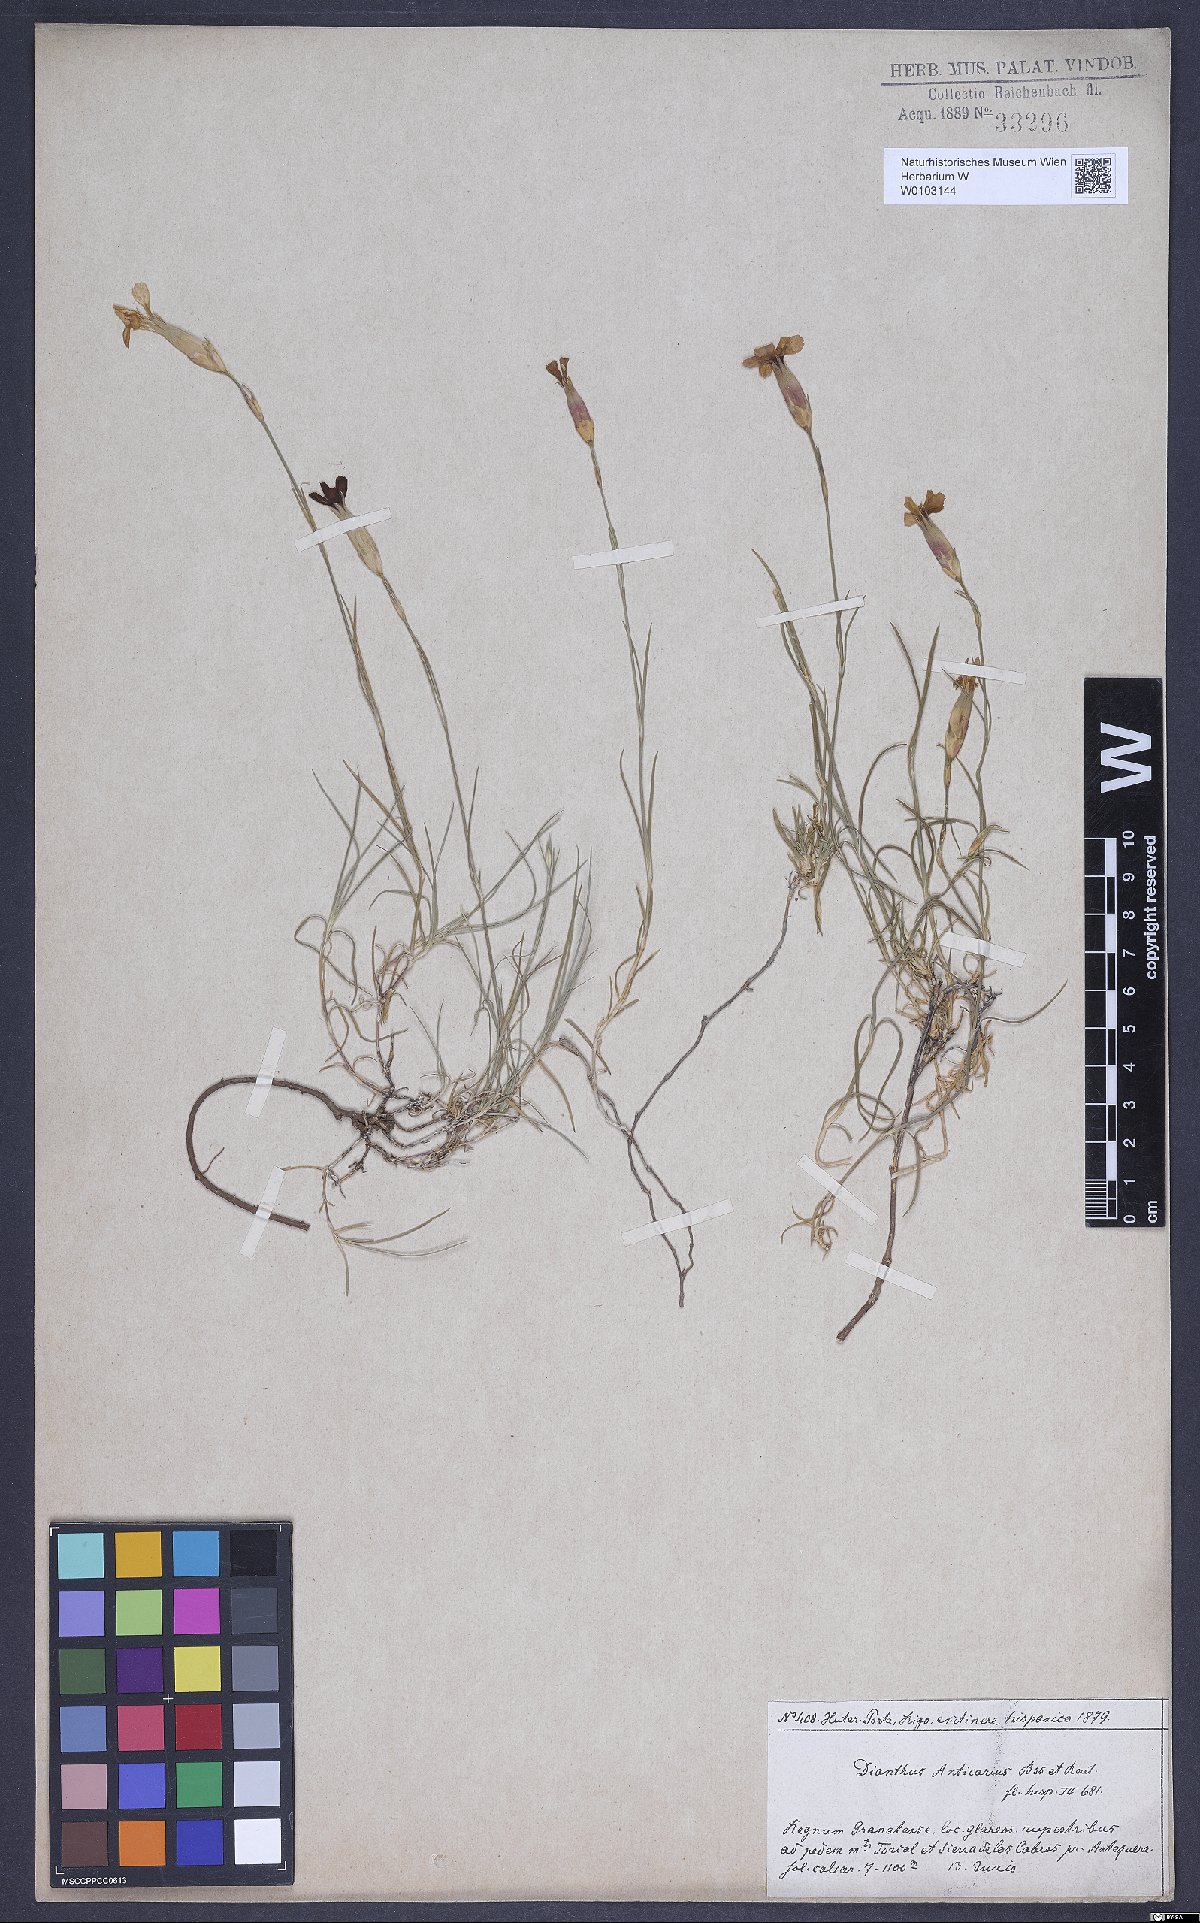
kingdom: Plantae
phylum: Tracheophyta
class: Magnoliopsida
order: Caryophyllales
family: Caryophyllaceae
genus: Dianthus
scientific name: Dianthus anticarius
